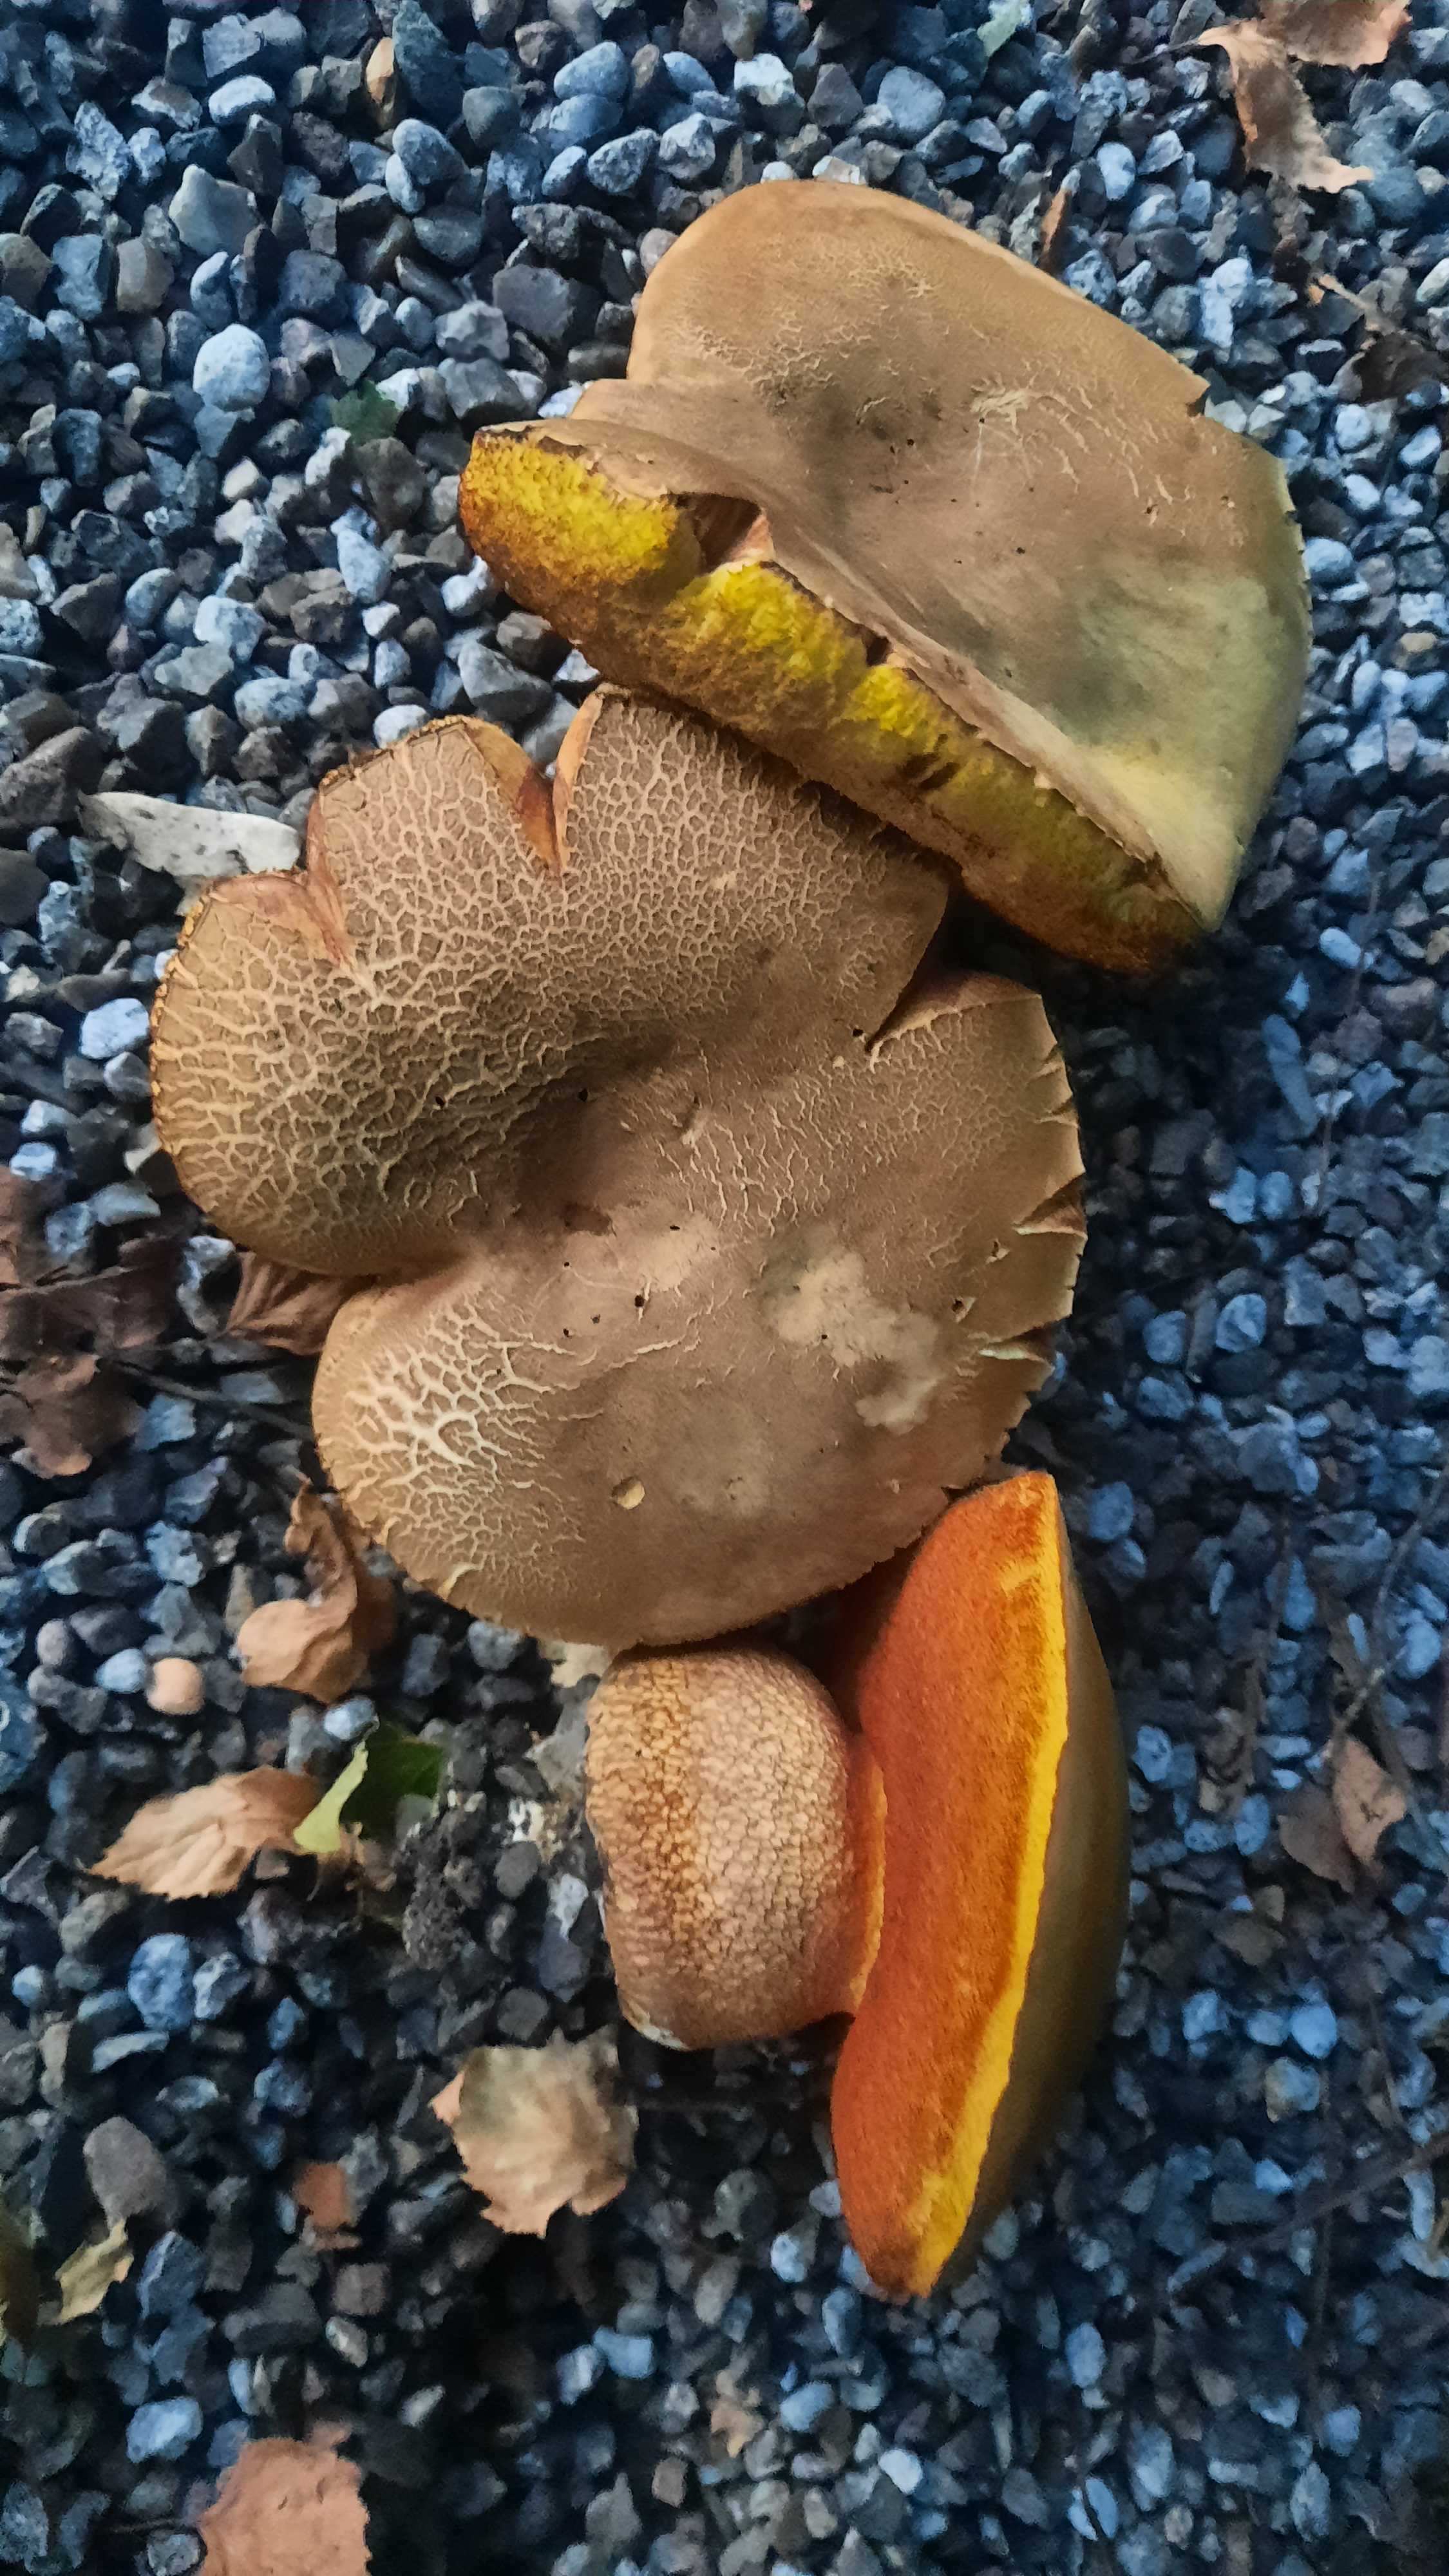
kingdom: Fungi
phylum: Basidiomycota
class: Agaricomycetes
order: Boletales
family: Boletaceae
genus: Suillellus
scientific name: Suillellus luridus
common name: netstokket indigorørhat
